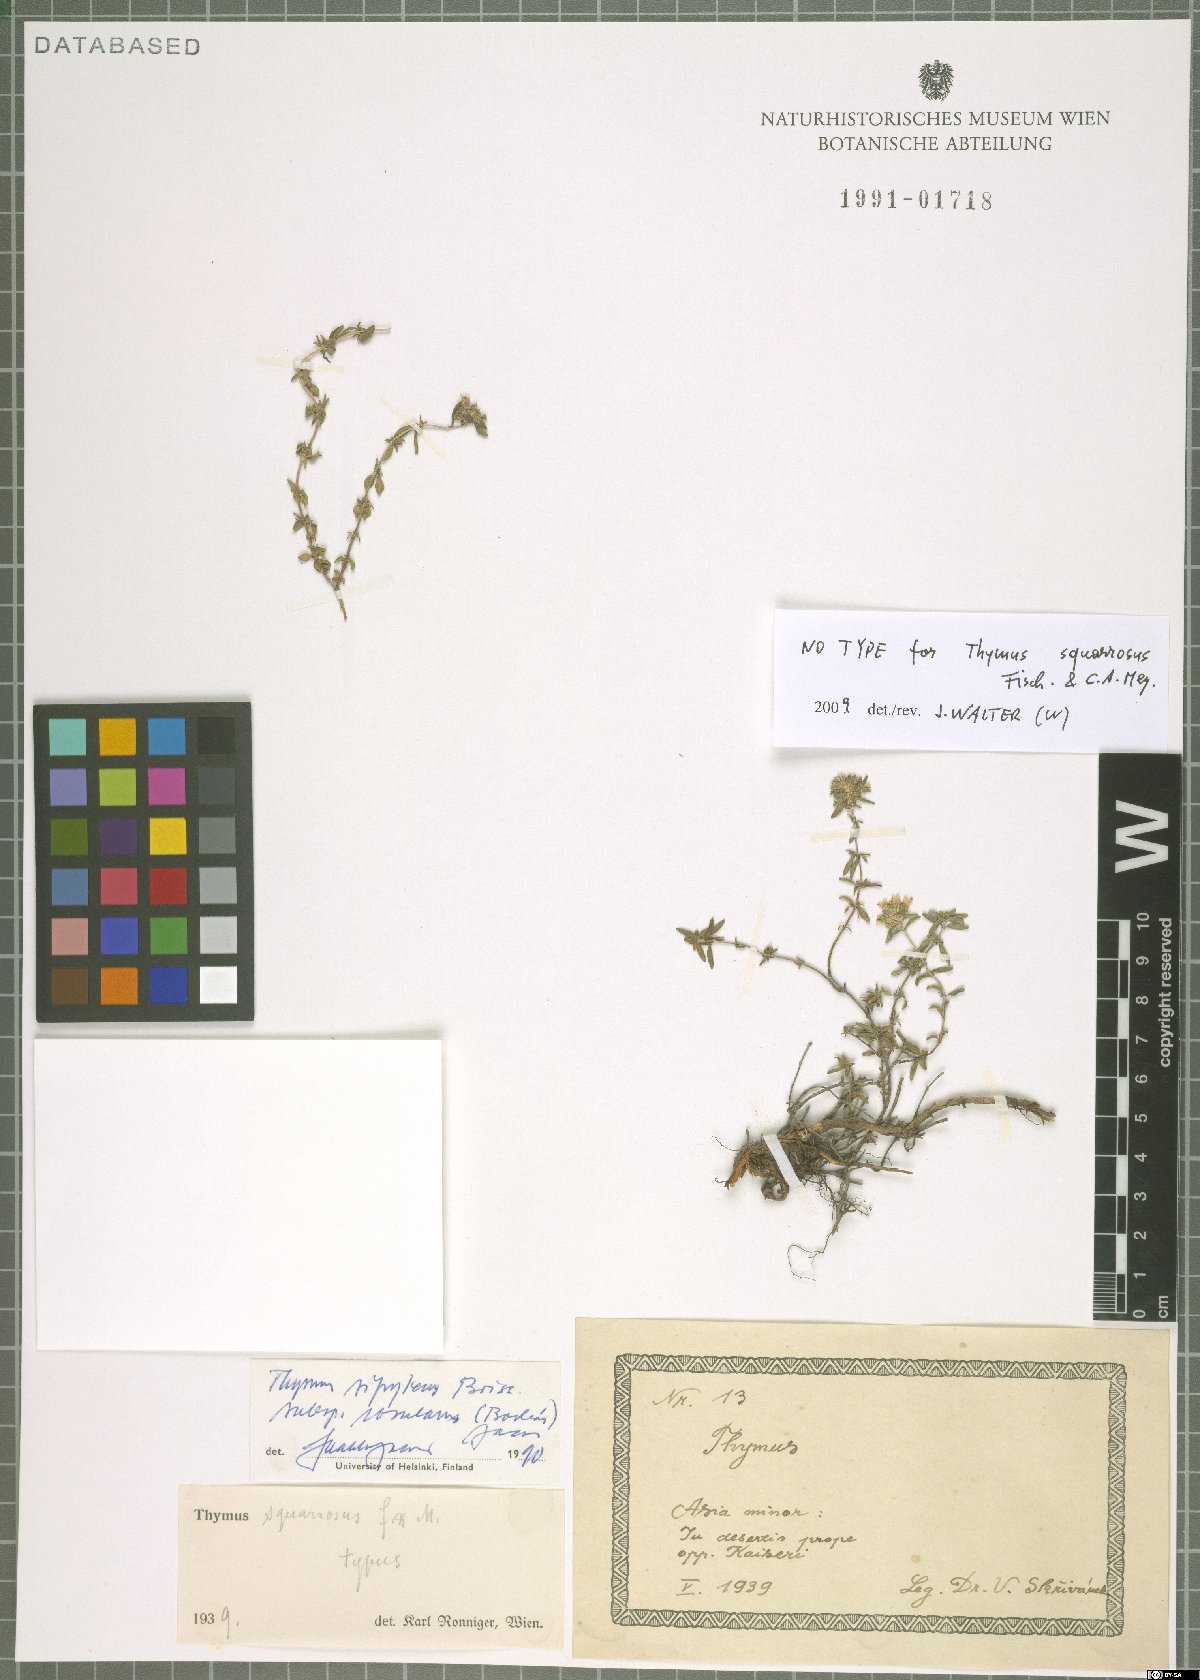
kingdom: Plantae
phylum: Tracheophyta
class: Magnoliopsida
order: Lamiales
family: Lamiaceae
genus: Thymus
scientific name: Thymus sipyleus
